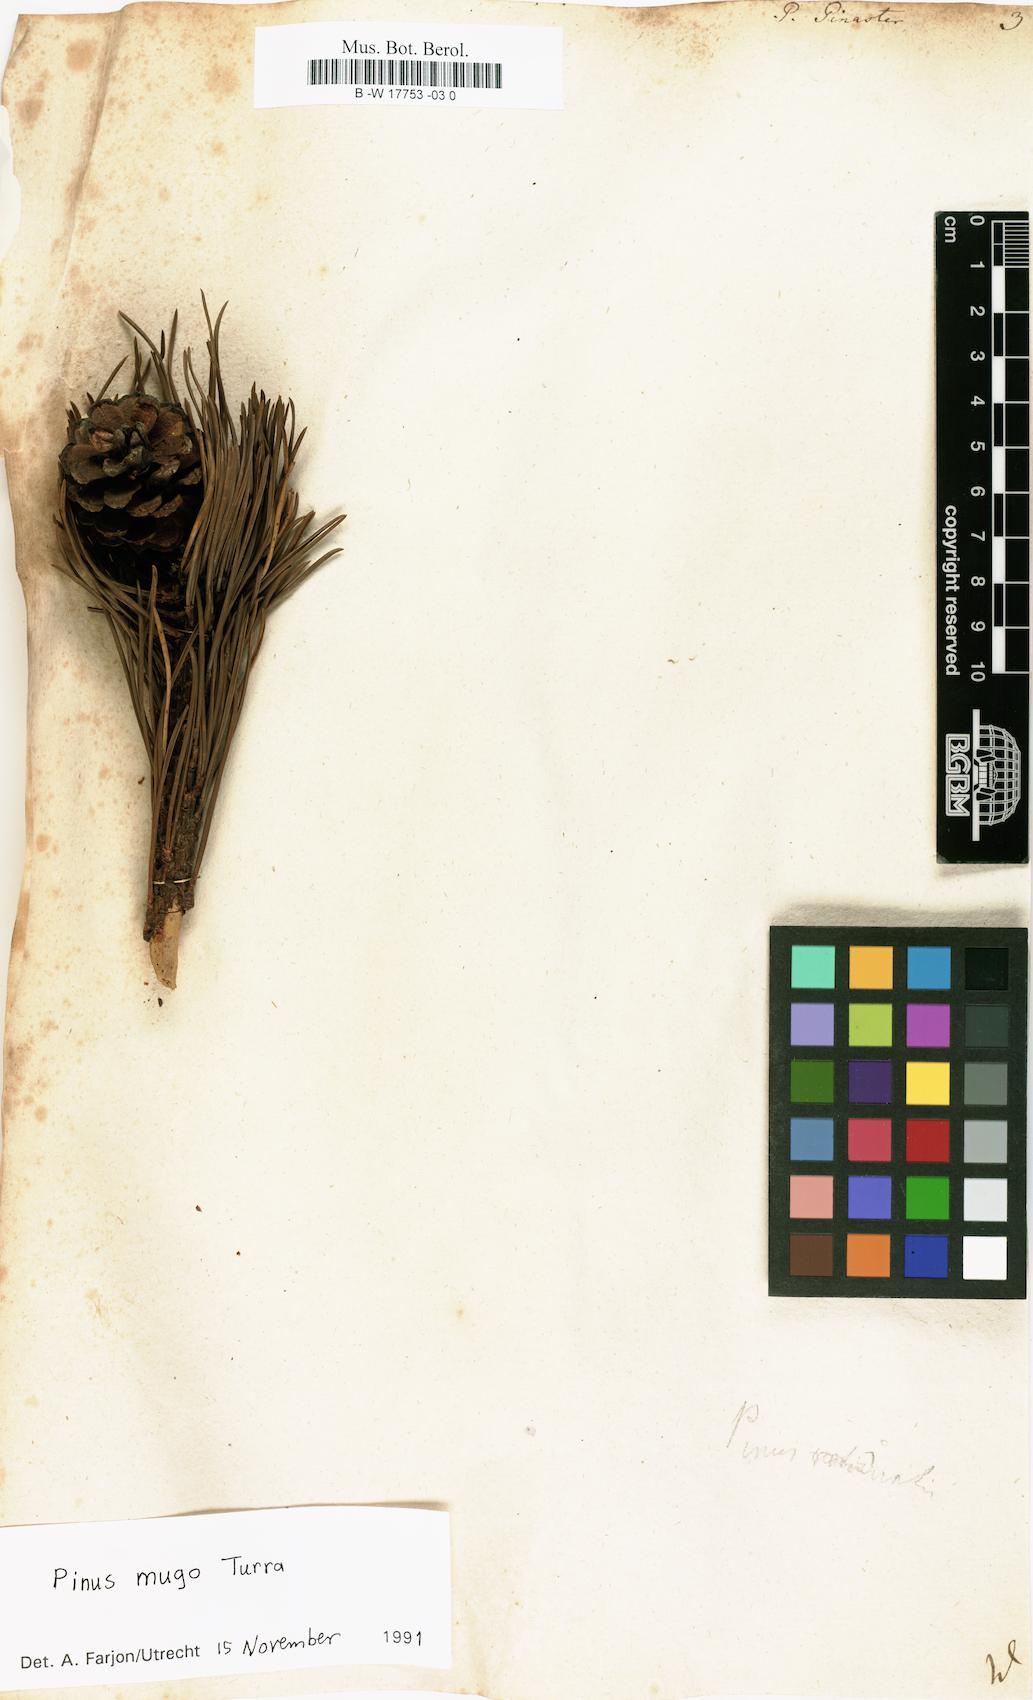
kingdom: Plantae
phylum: Tracheophyta
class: Pinopsida
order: Pinales
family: Pinaceae
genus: Pinus
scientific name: Pinus pinaster
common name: Maritime pine
